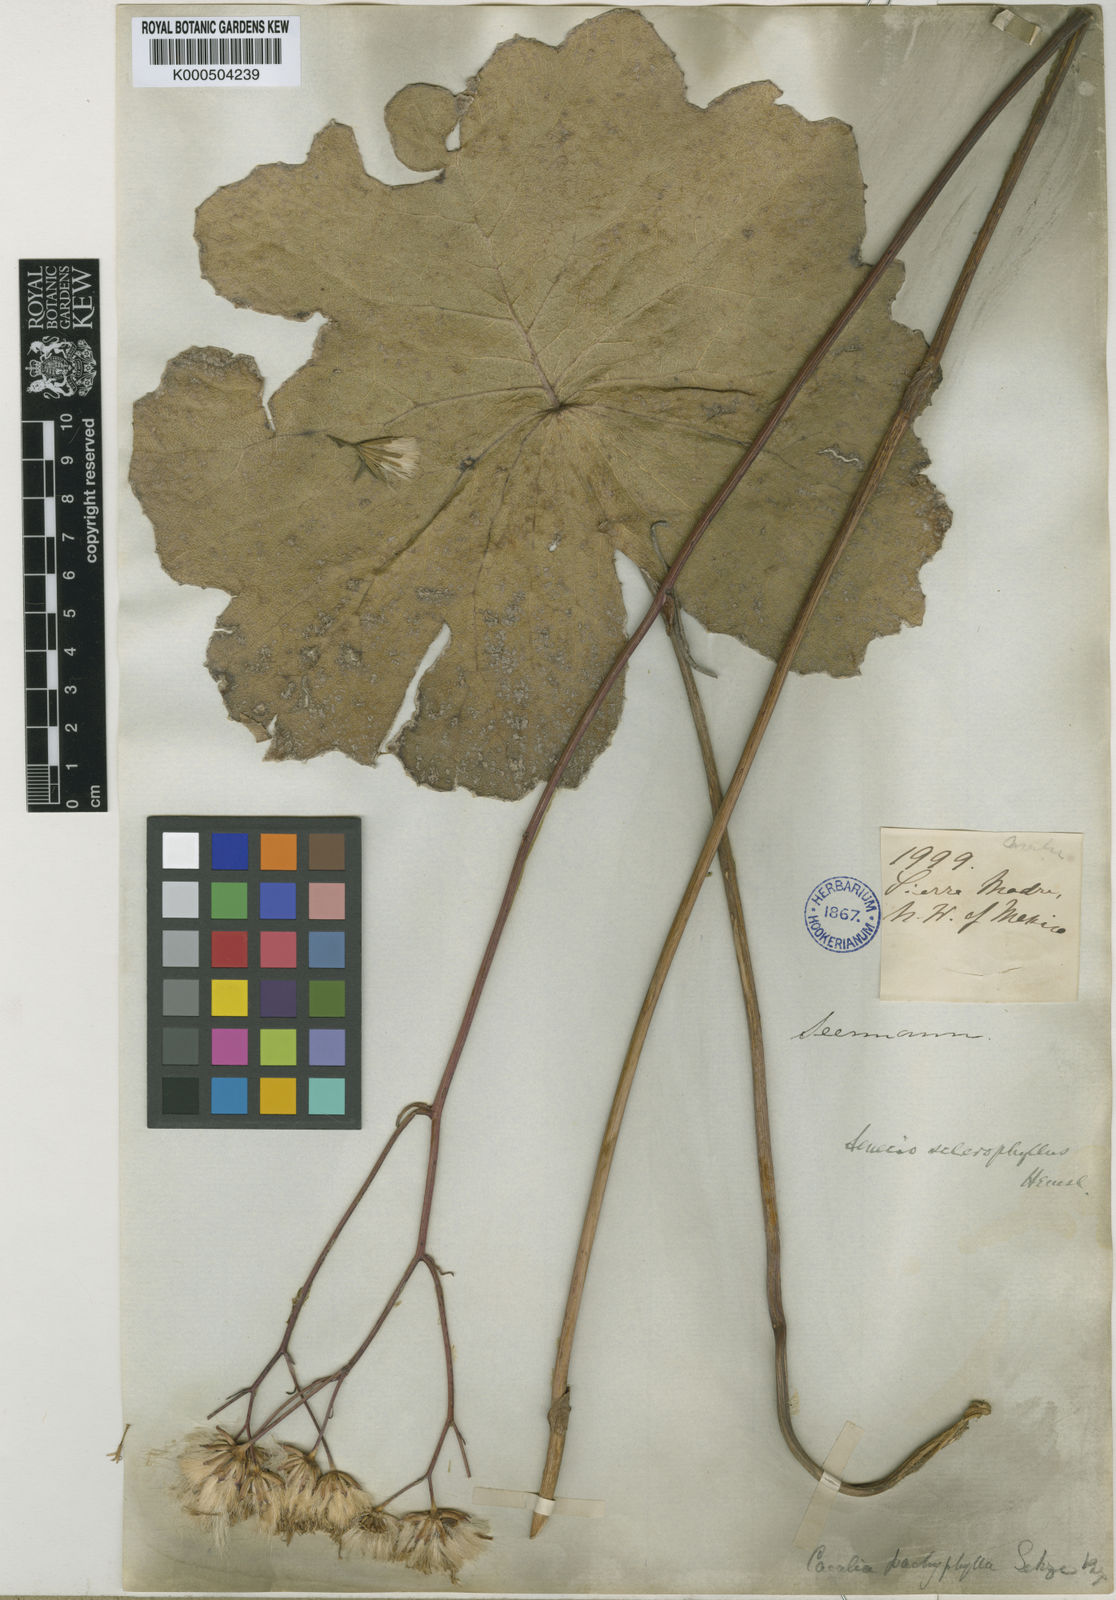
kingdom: Plantae
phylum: Tracheophyta
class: Magnoliopsida
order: Asterales
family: Asteraceae
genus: Psacalium
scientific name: Psacalium
